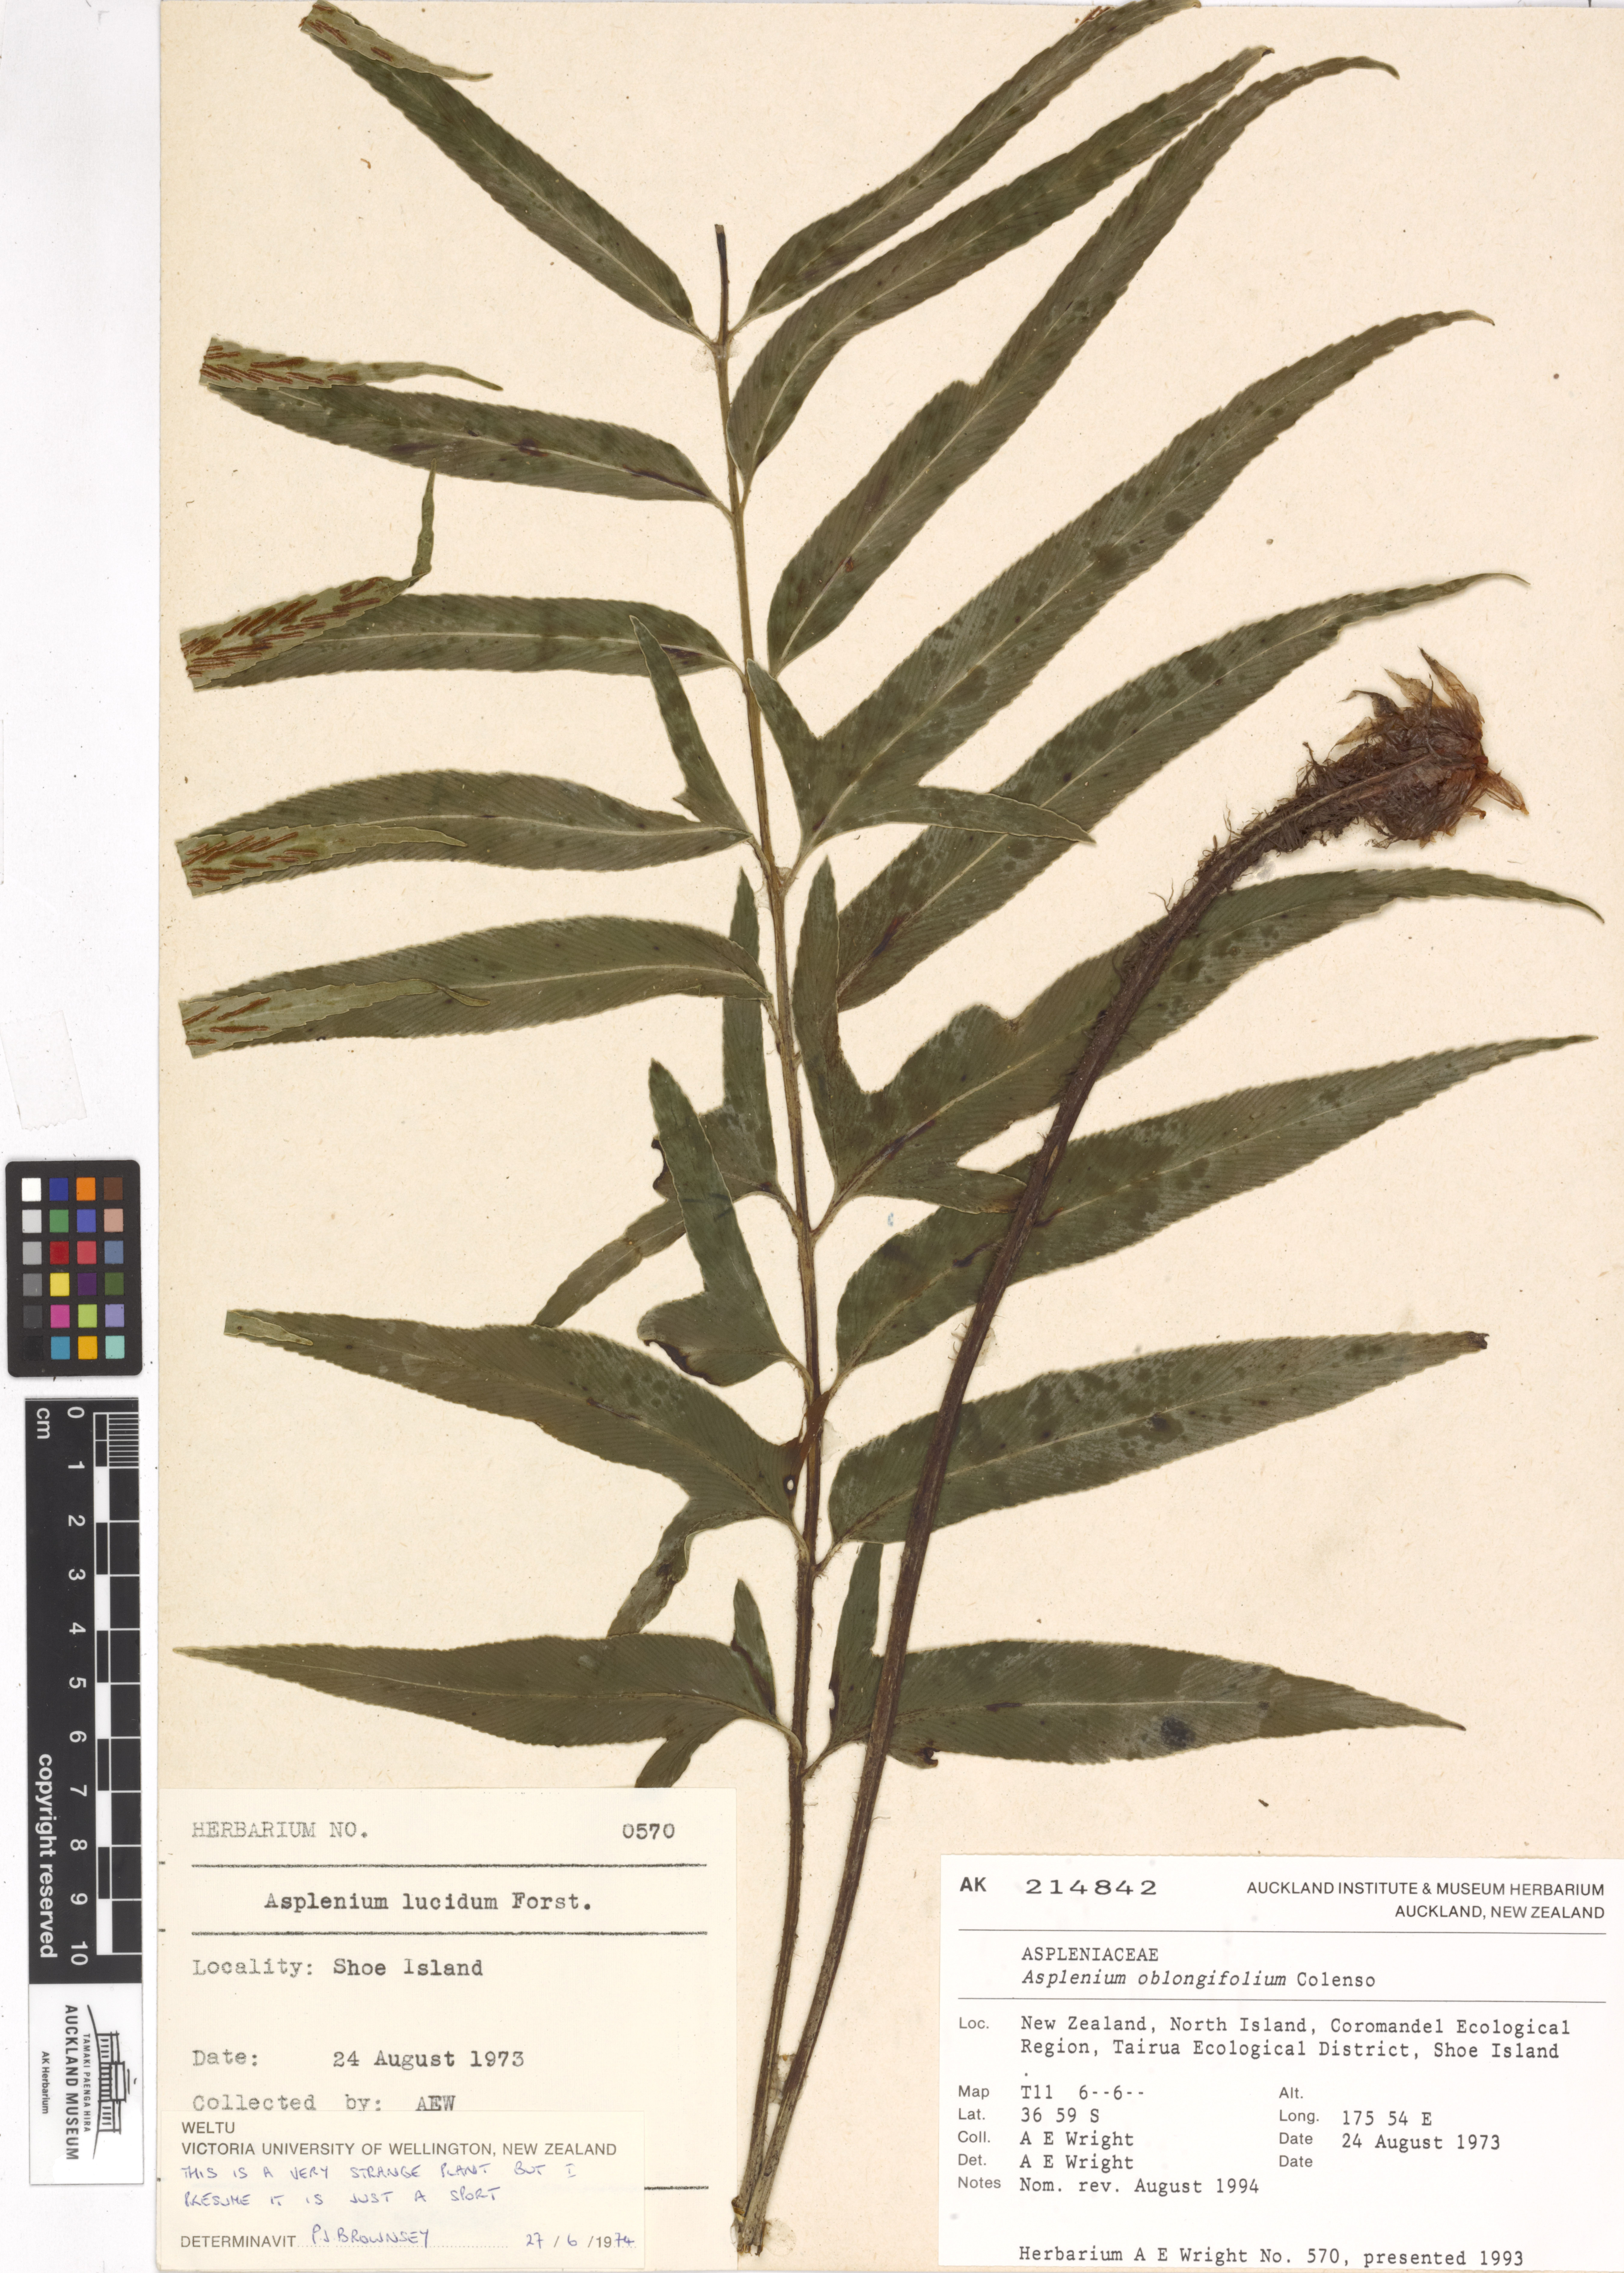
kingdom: Plantae
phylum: Tracheophyta
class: Polypodiopsida
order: Polypodiales
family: Aspleniaceae
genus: Asplenium
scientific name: Asplenium oblongifolium
